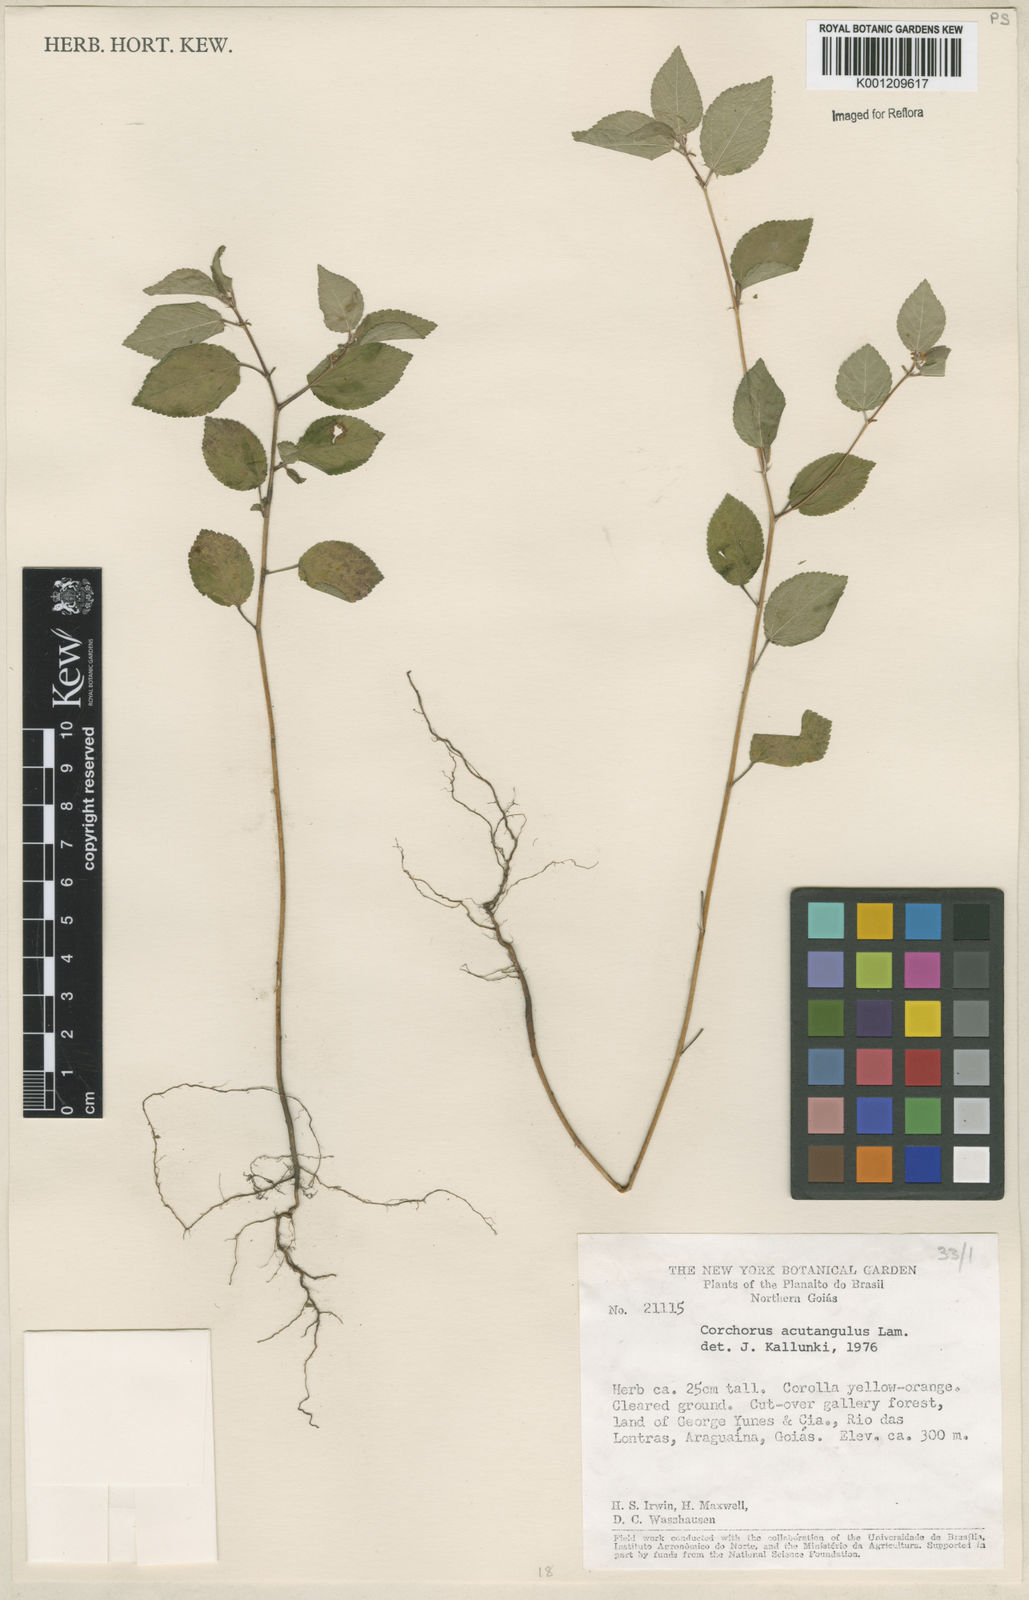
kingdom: Plantae
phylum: Tracheophyta
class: Magnoliopsida
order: Malvales
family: Malvaceae
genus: Corchorus
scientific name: Corchorus aestuans
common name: Jute
